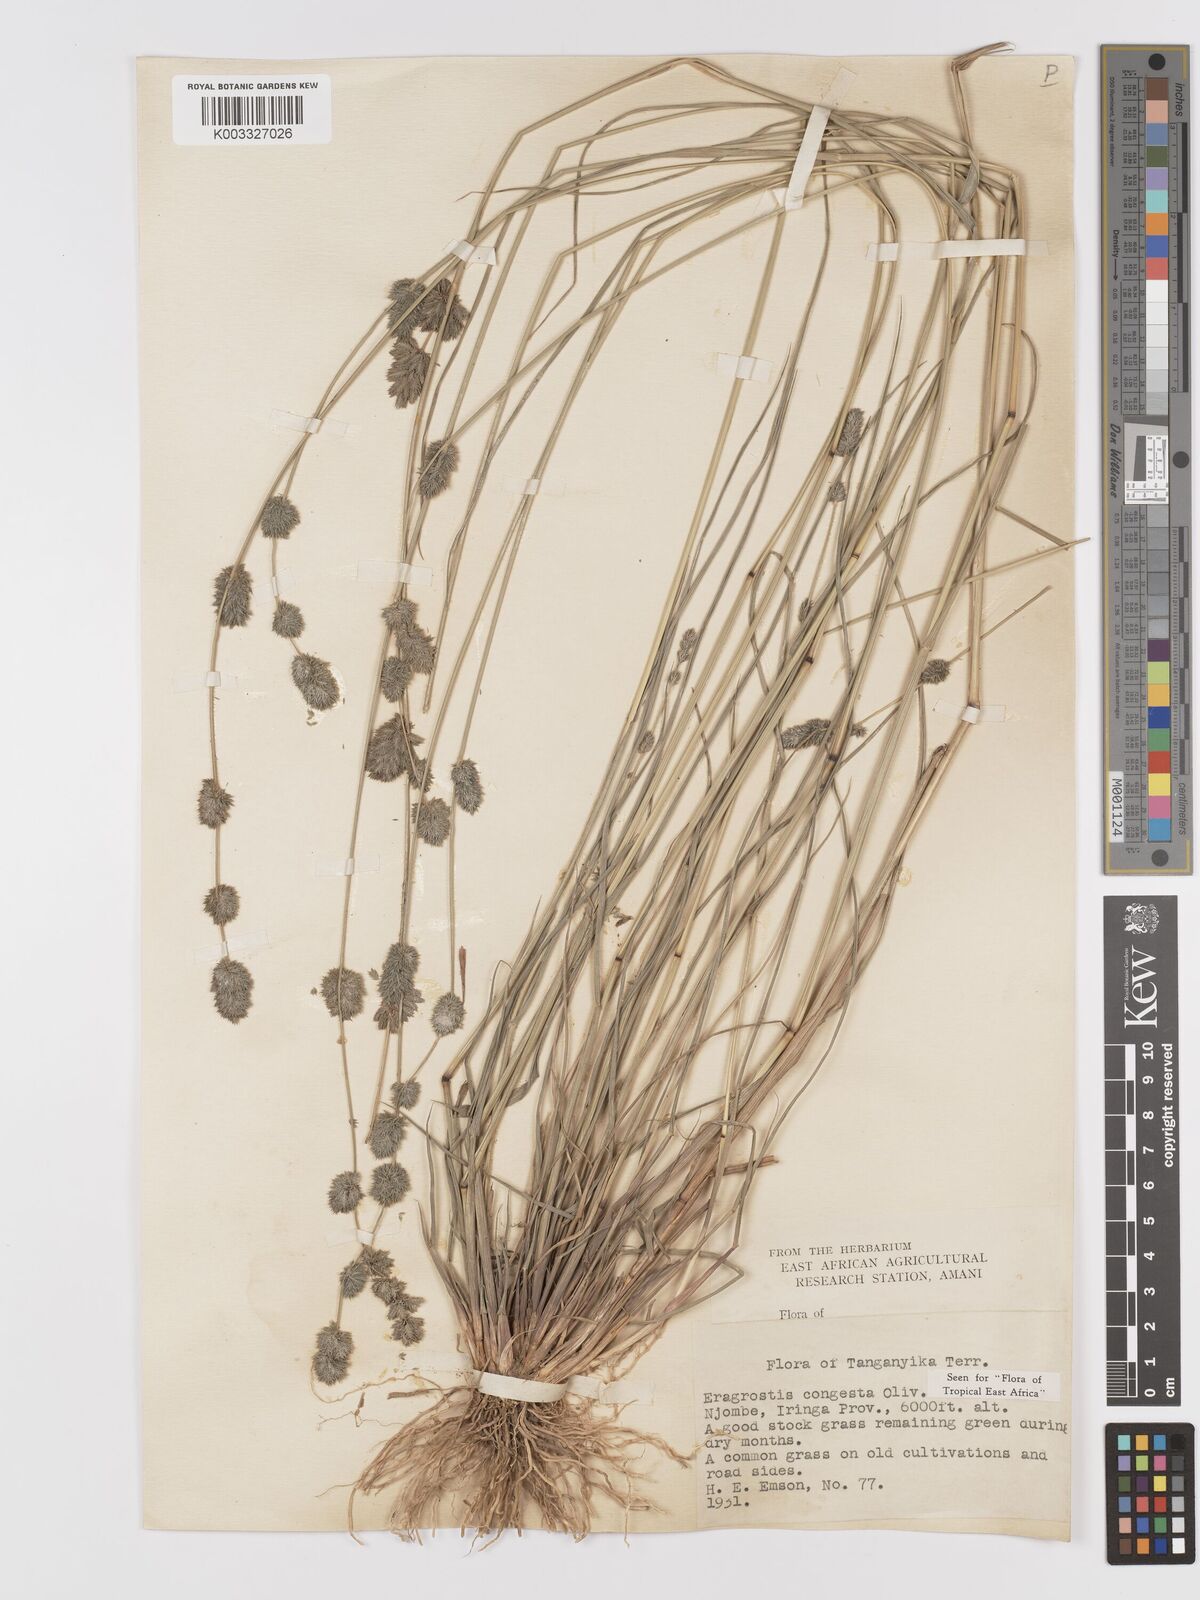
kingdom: Plantae
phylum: Tracheophyta
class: Liliopsida
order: Poales
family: Poaceae
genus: Eragrostis
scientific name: Eragrostis congesta
